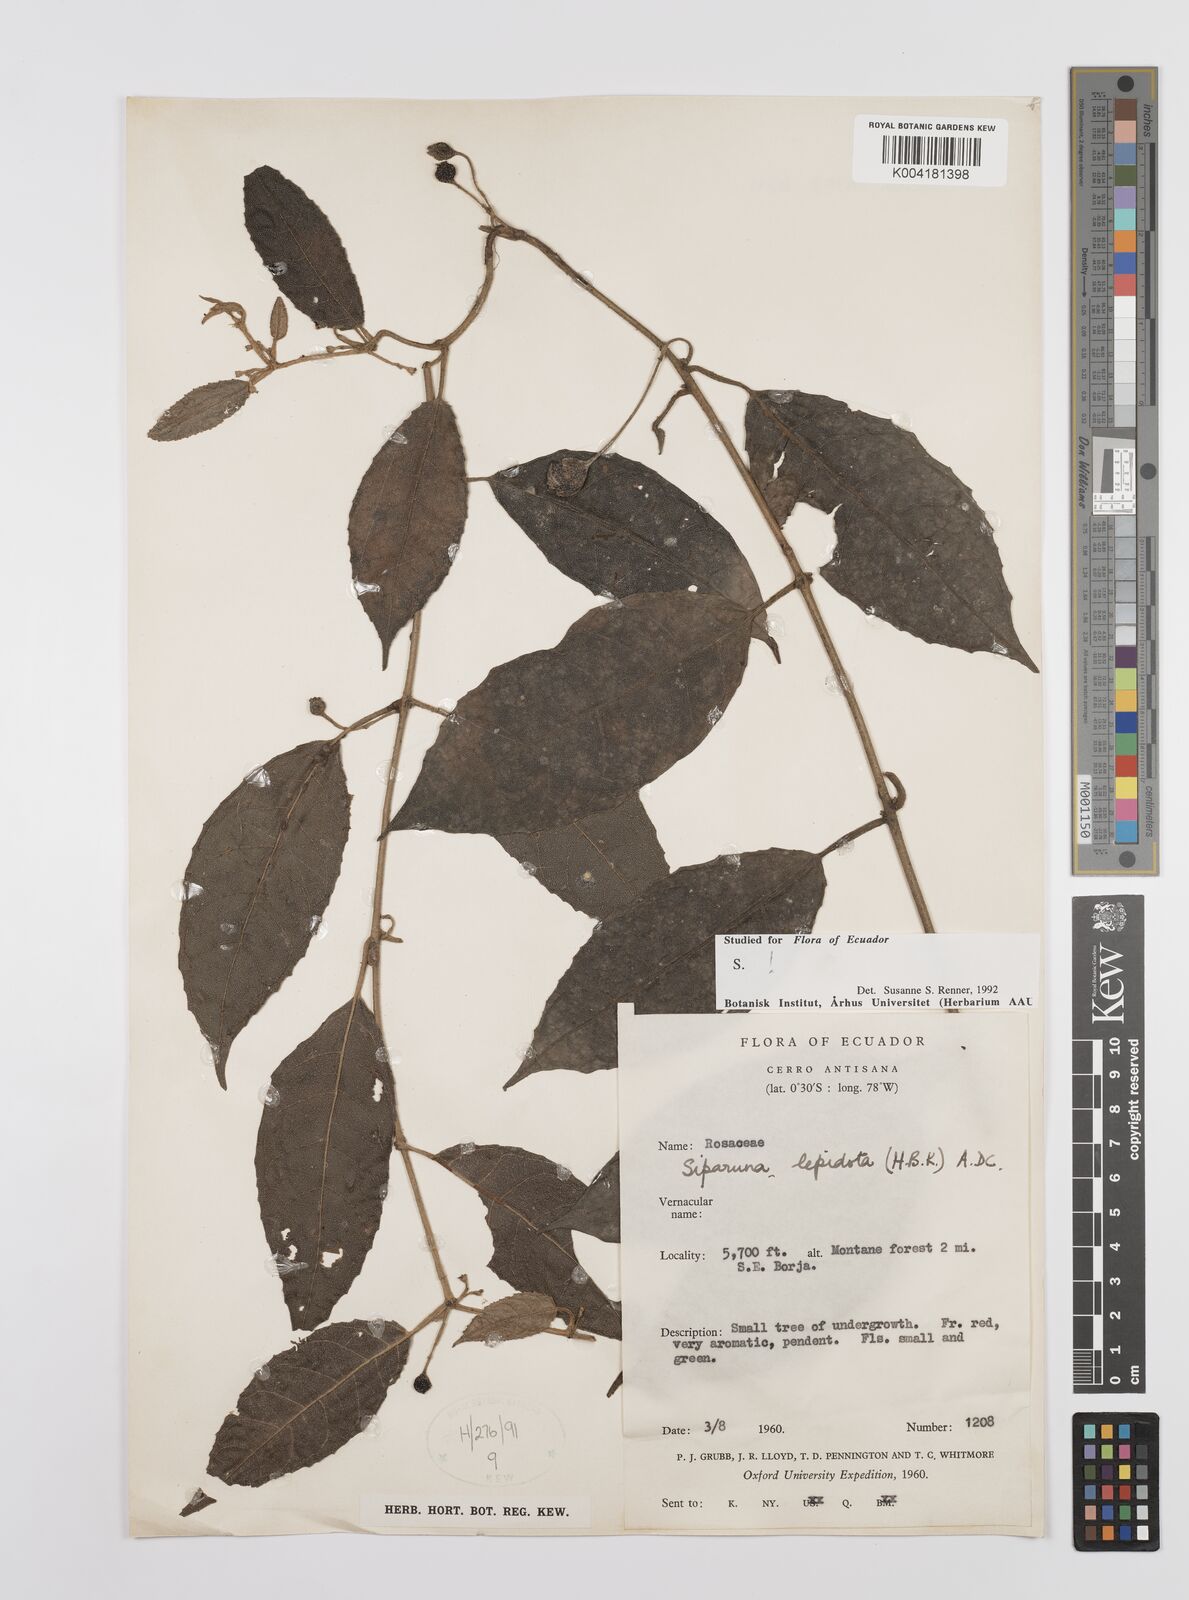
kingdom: Plantae
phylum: Tracheophyta
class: Magnoliopsida
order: Laurales
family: Siparunaceae
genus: Siparuna
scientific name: Siparuna lepidota
